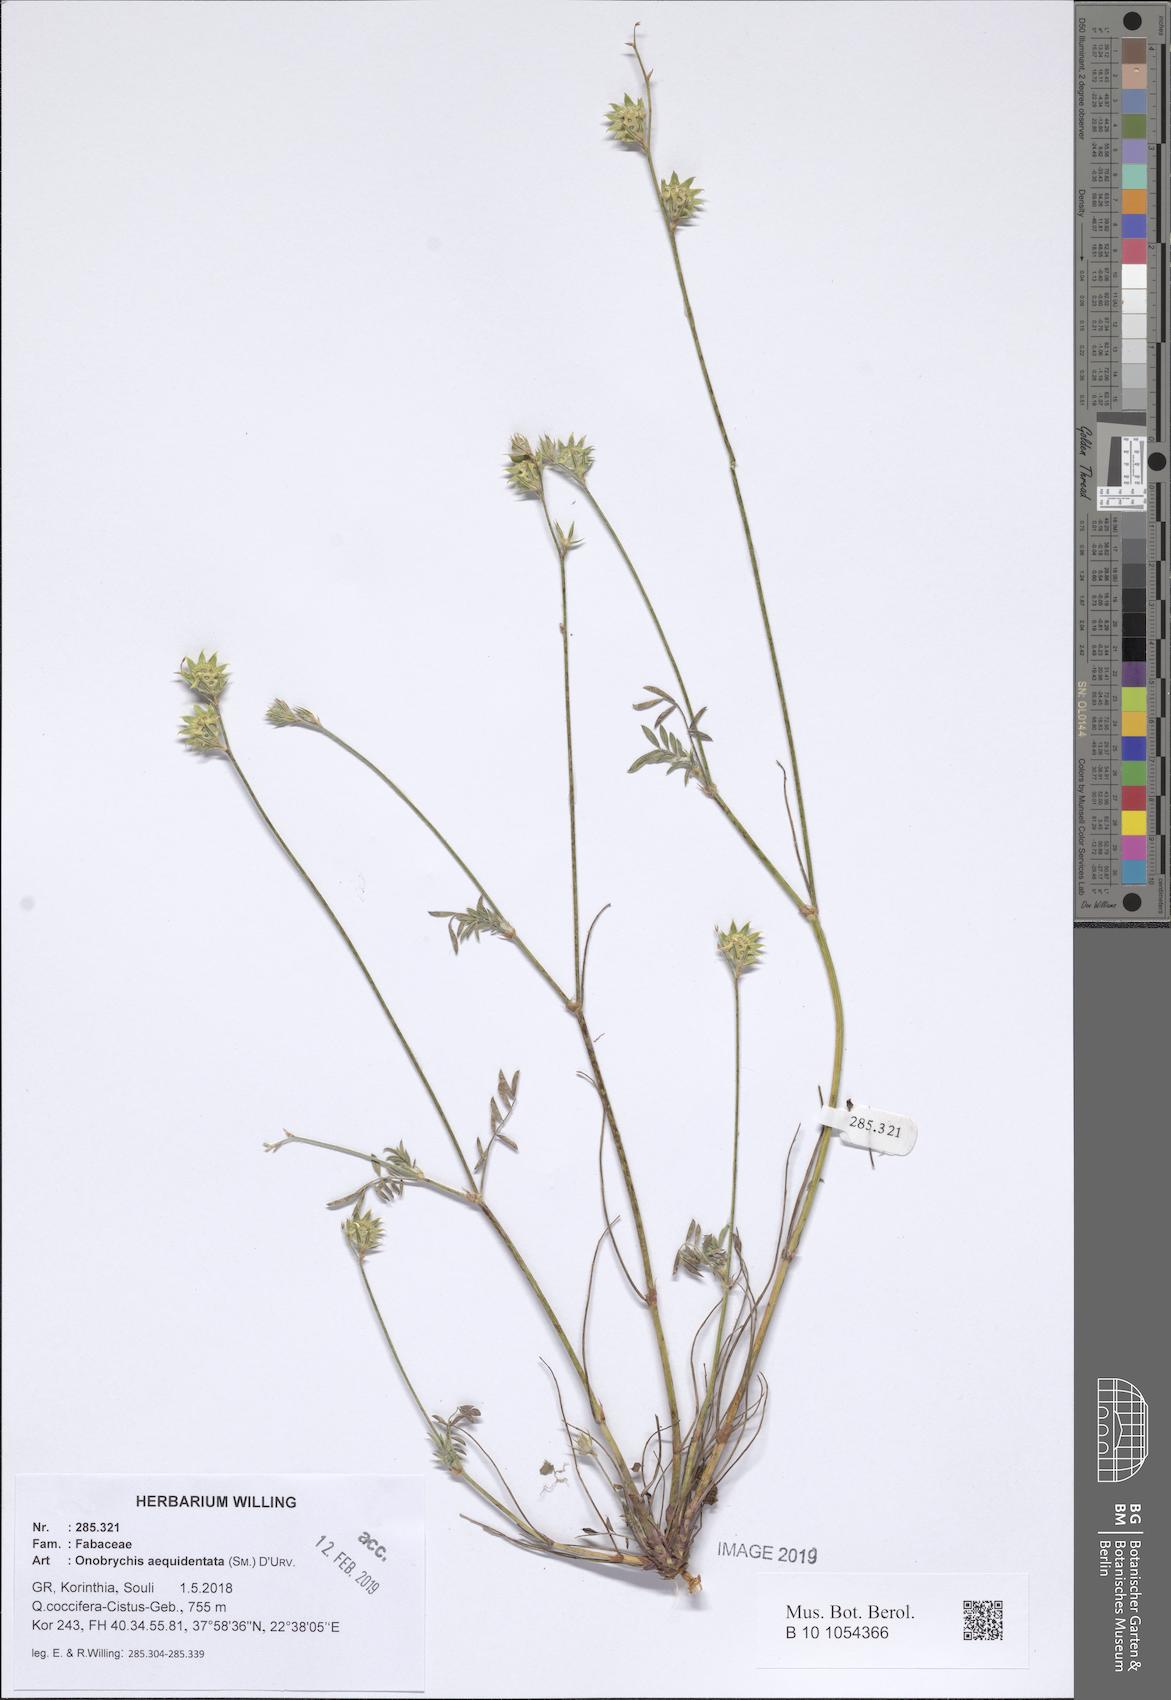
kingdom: Plantae
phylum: Tracheophyta
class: Magnoliopsida
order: Fabales
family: Fabaceae
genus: Onobrychis
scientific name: Onobrychis aequidentata
